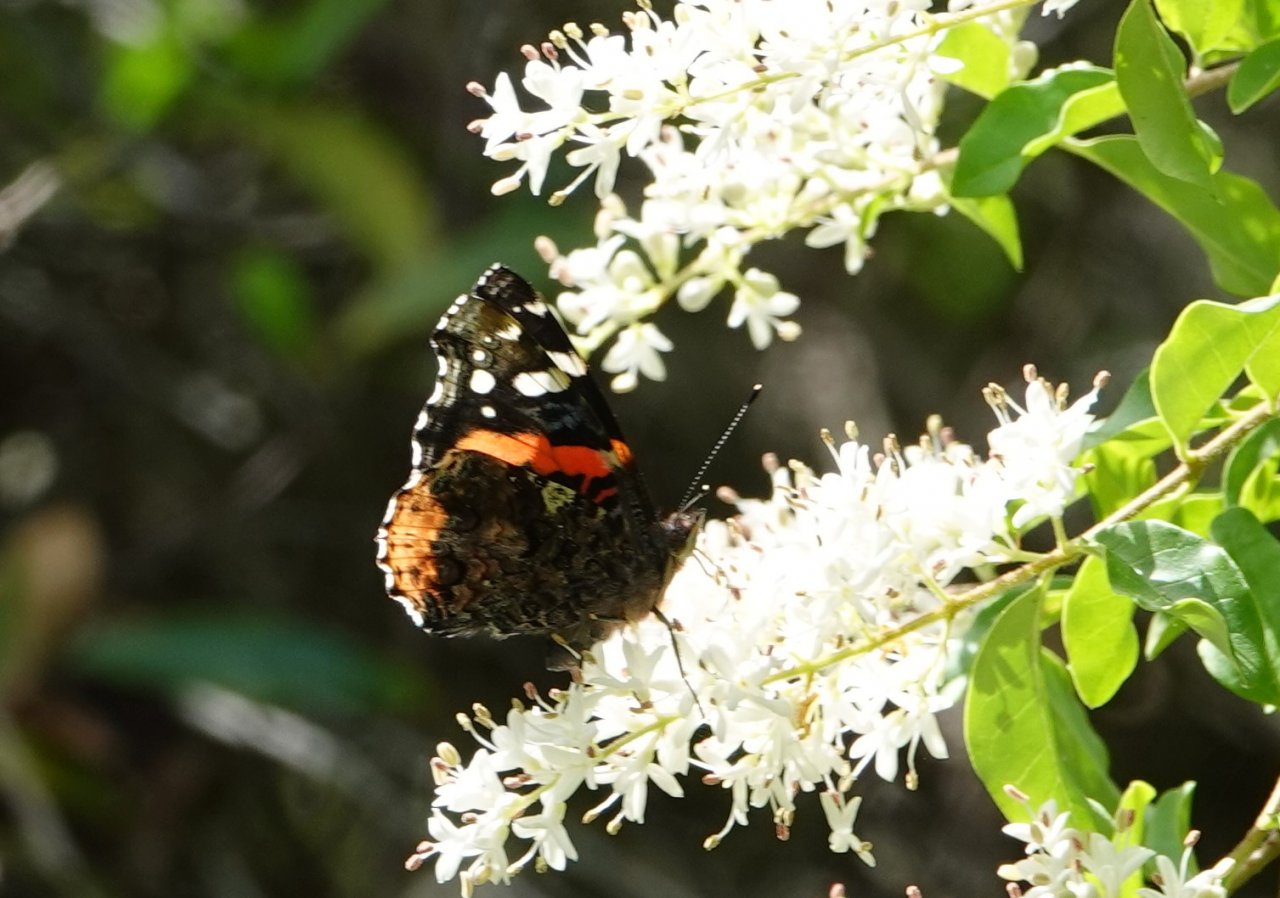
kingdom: Animalia
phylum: Arthropoda
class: Insecta
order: Lepidoptera
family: Nymphalidae
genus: Vanessa
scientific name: Vanessa atalanta
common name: Red Admiral
